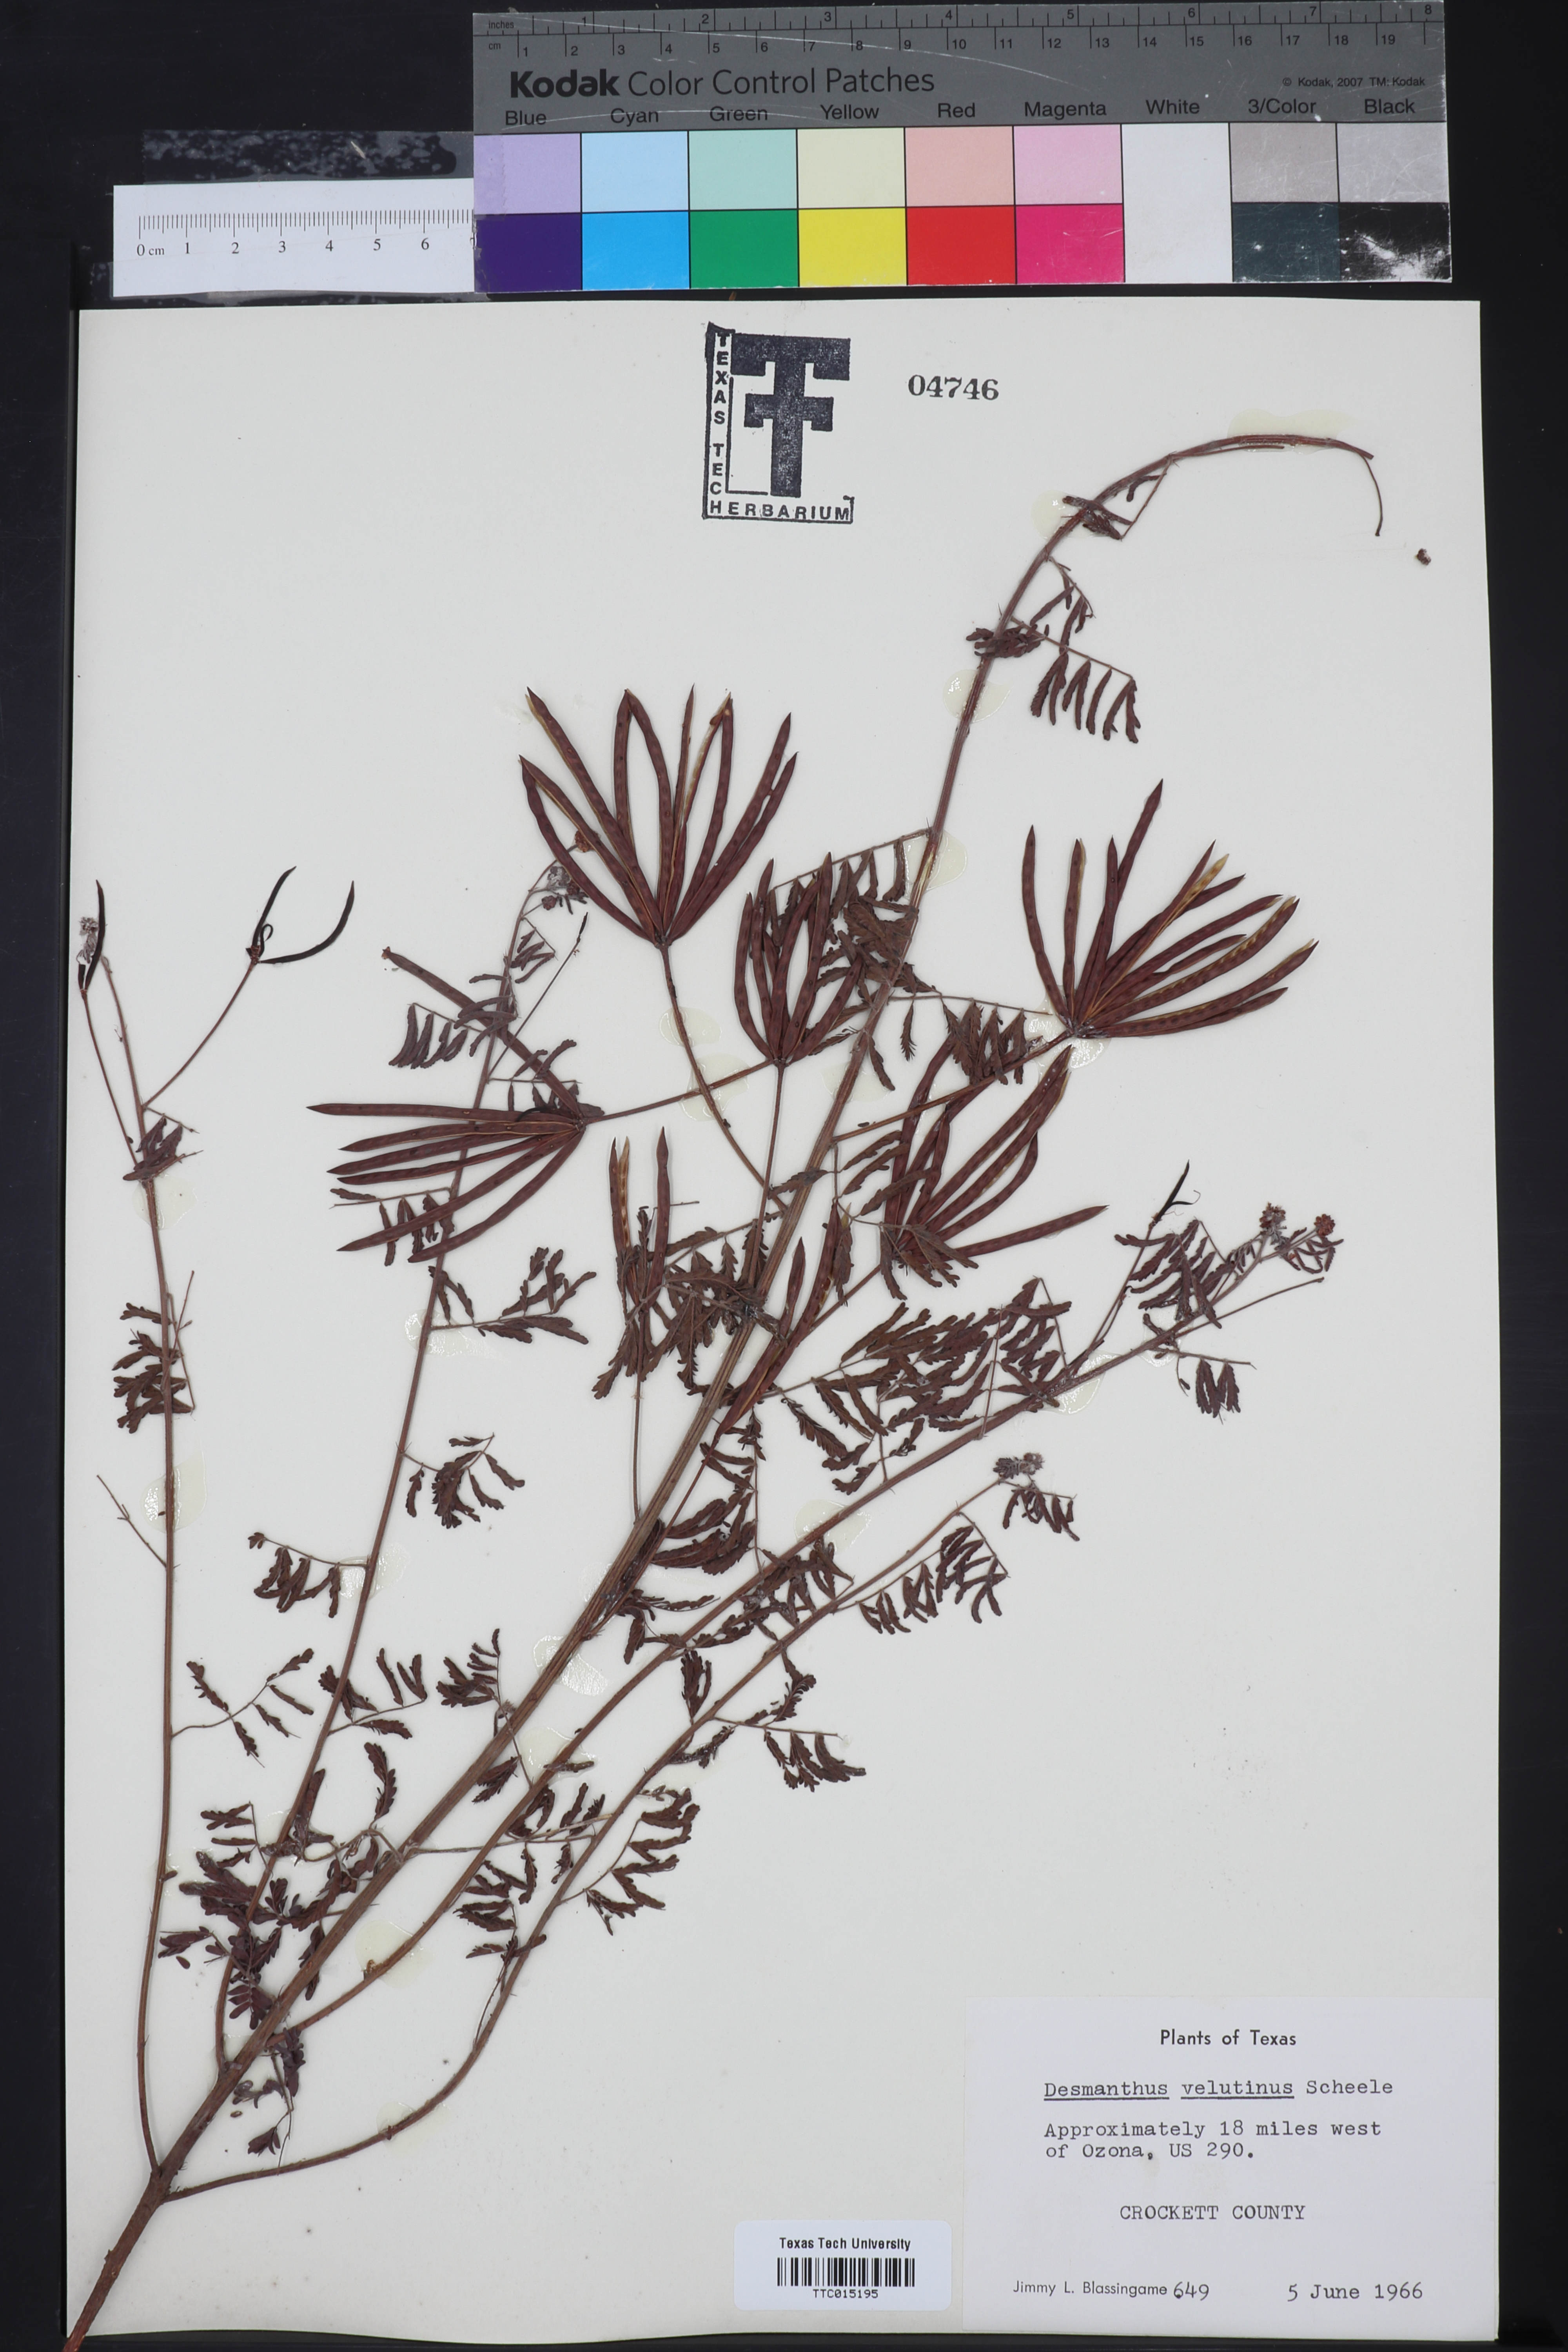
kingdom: Plantae
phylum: Tracheophyta
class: Magnoliopsida
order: Fabales
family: Fabaceae
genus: Desmanthus
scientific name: Desmanthus velutinus
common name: Velvet bundle-flower
